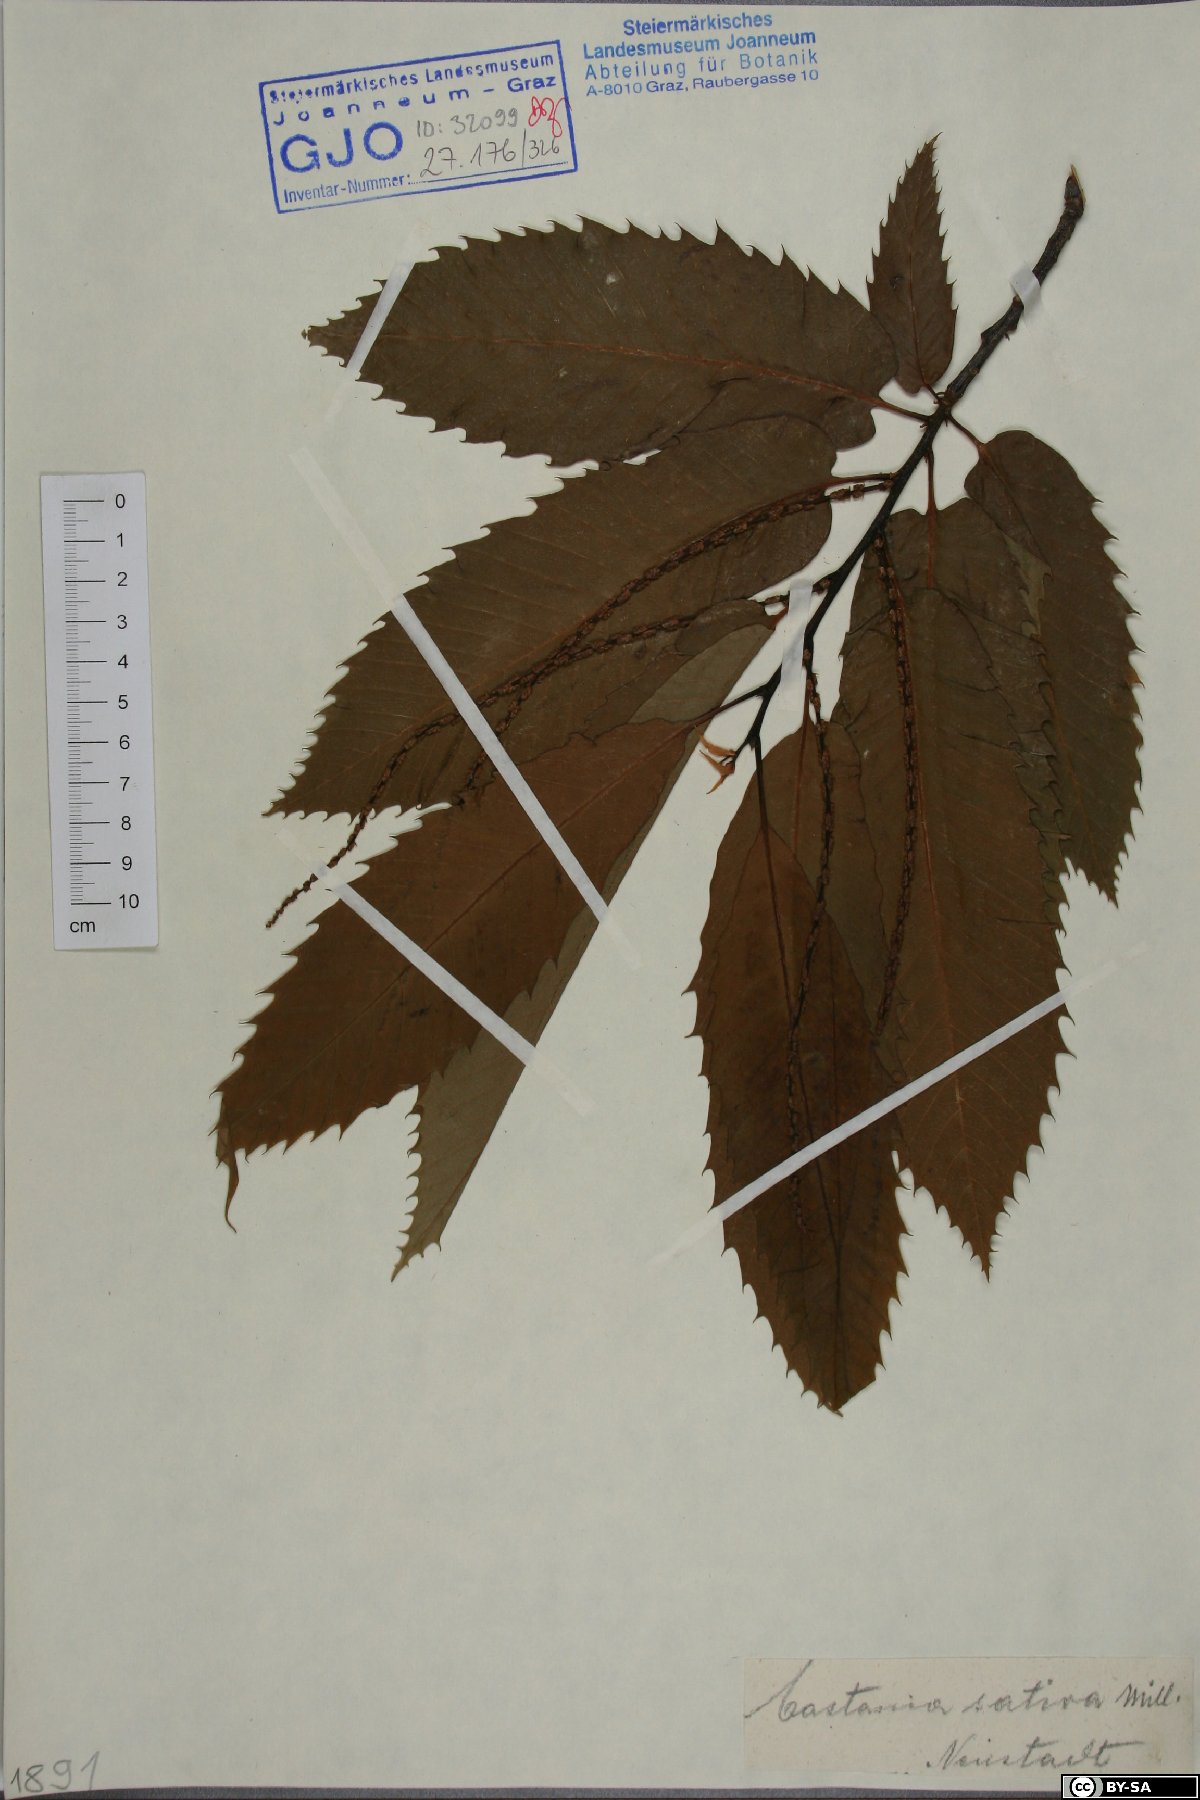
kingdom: Plantae
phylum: Tracheophyta
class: Magnoliopsida
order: Fagales
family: Fagaceae
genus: Castanea
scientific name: Castanea sativa
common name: Sweet chestnut
